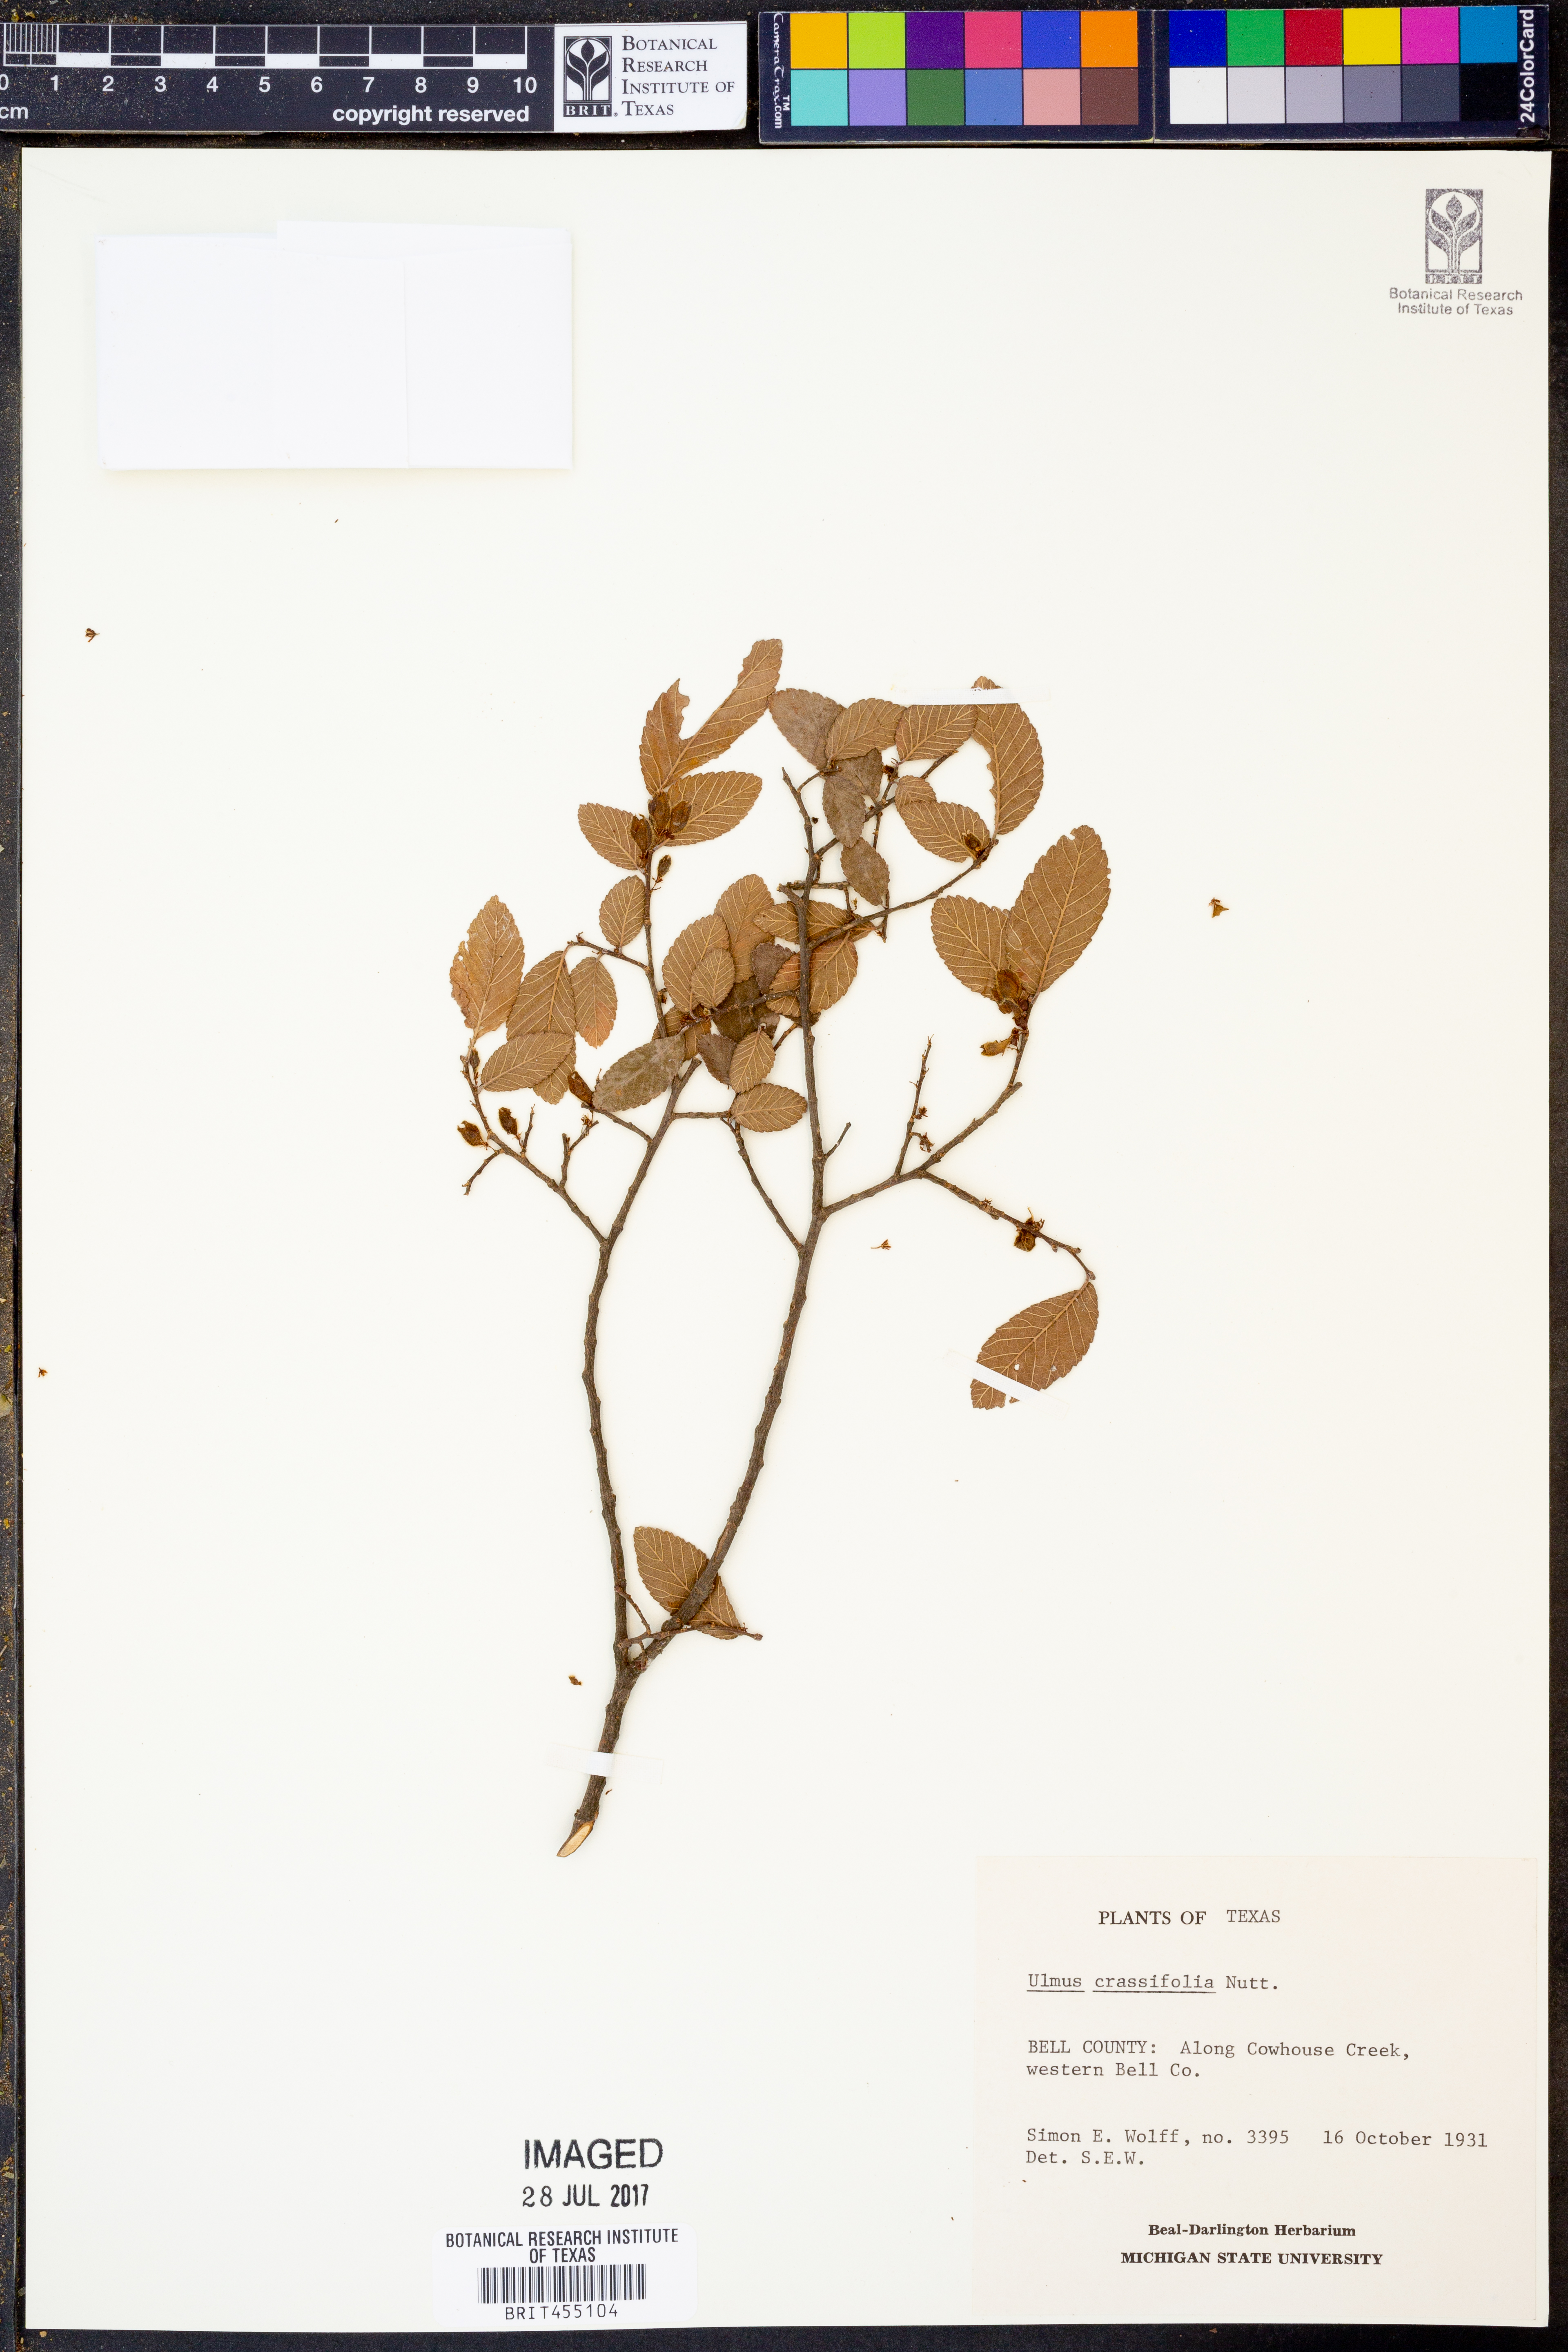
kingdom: Plantae
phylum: Tracheophyta
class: Magnoliopsida
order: Rosales
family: Ulmaceae
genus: Ulmus
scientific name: Ulmus crassifolia
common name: Basket elm
